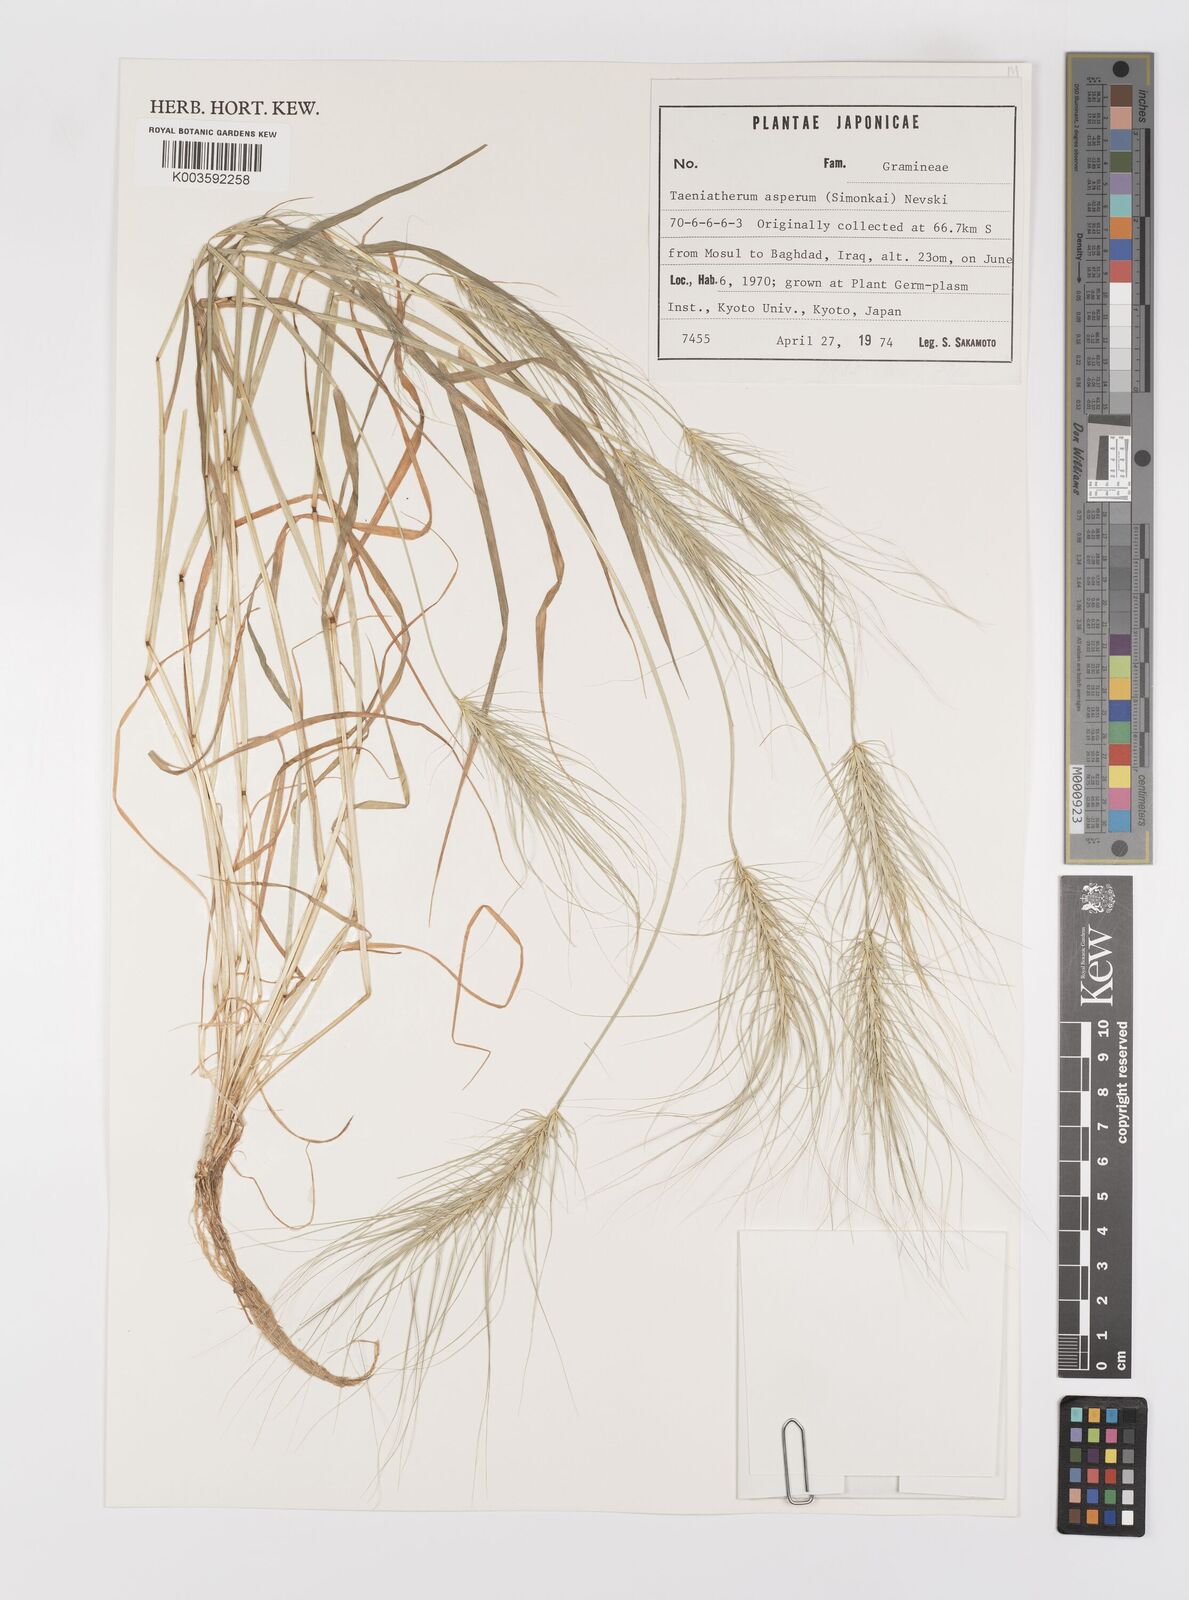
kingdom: Plantae
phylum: Tracheophyta
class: Liliopsida
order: Poales
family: Poaceae
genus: Taeniatherum
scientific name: Taeniatherum caput-medusae
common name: Medusahead
